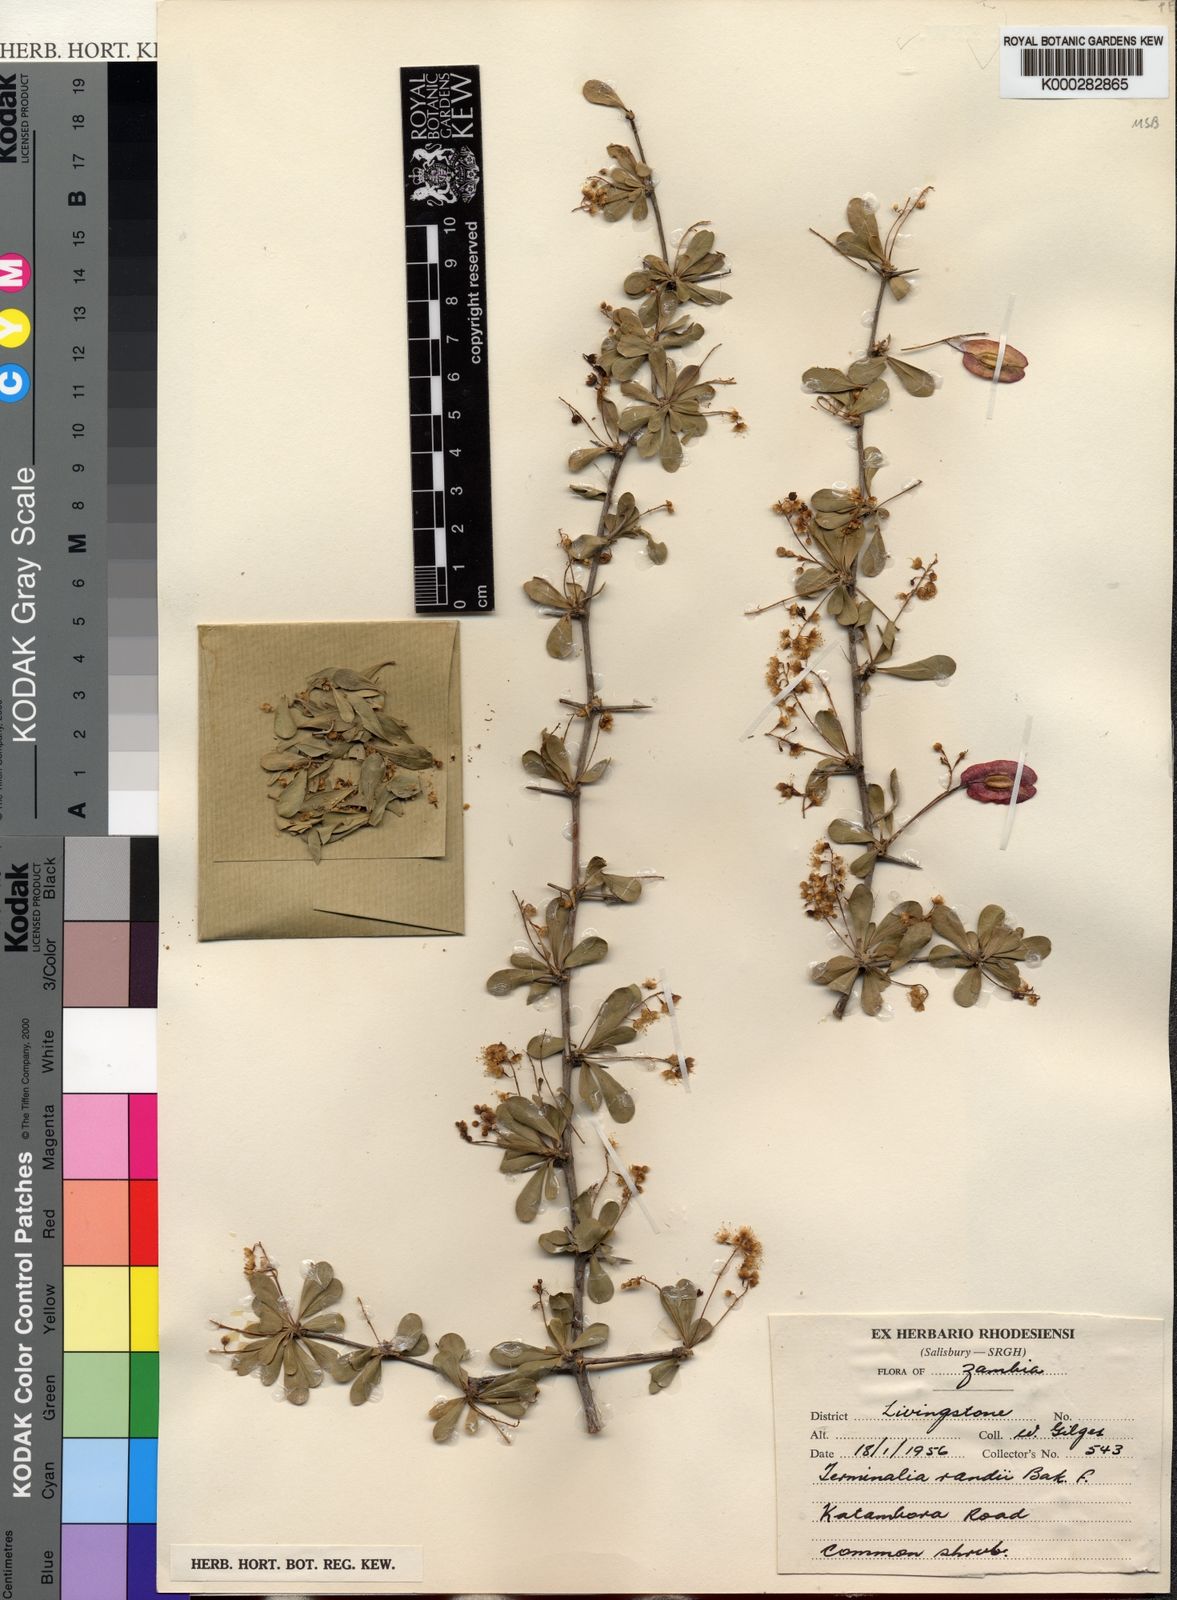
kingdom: Plantae
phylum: Tracheophyta
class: Magnoliopsida
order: Myrtales
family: Combretaceae
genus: Terminalia
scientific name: Terminalia randii
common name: Small-leaved terminalia
